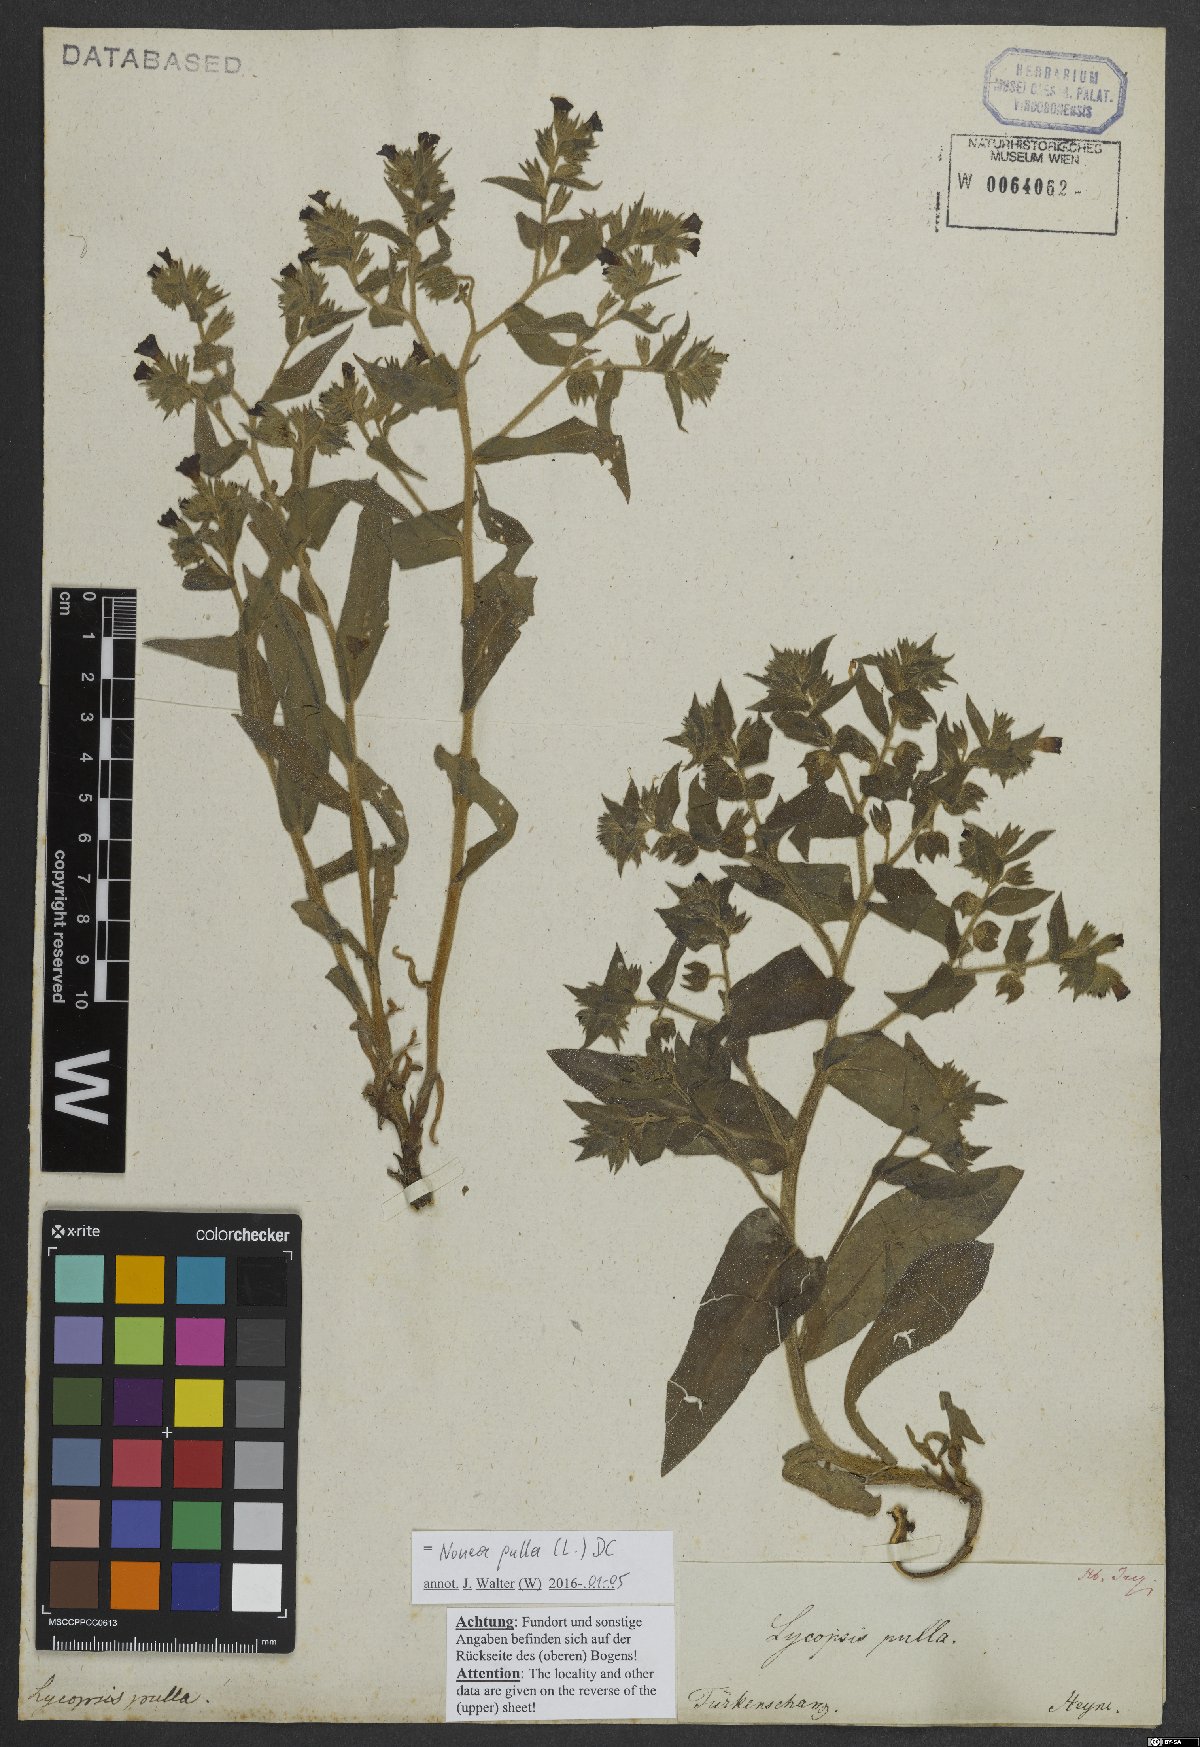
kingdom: Plantae
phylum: Tracheophyta
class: Magnoliopsida
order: Boraginales
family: Boraginaceae
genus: Nonea
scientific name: Nonea pulla
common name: Brown nonea
